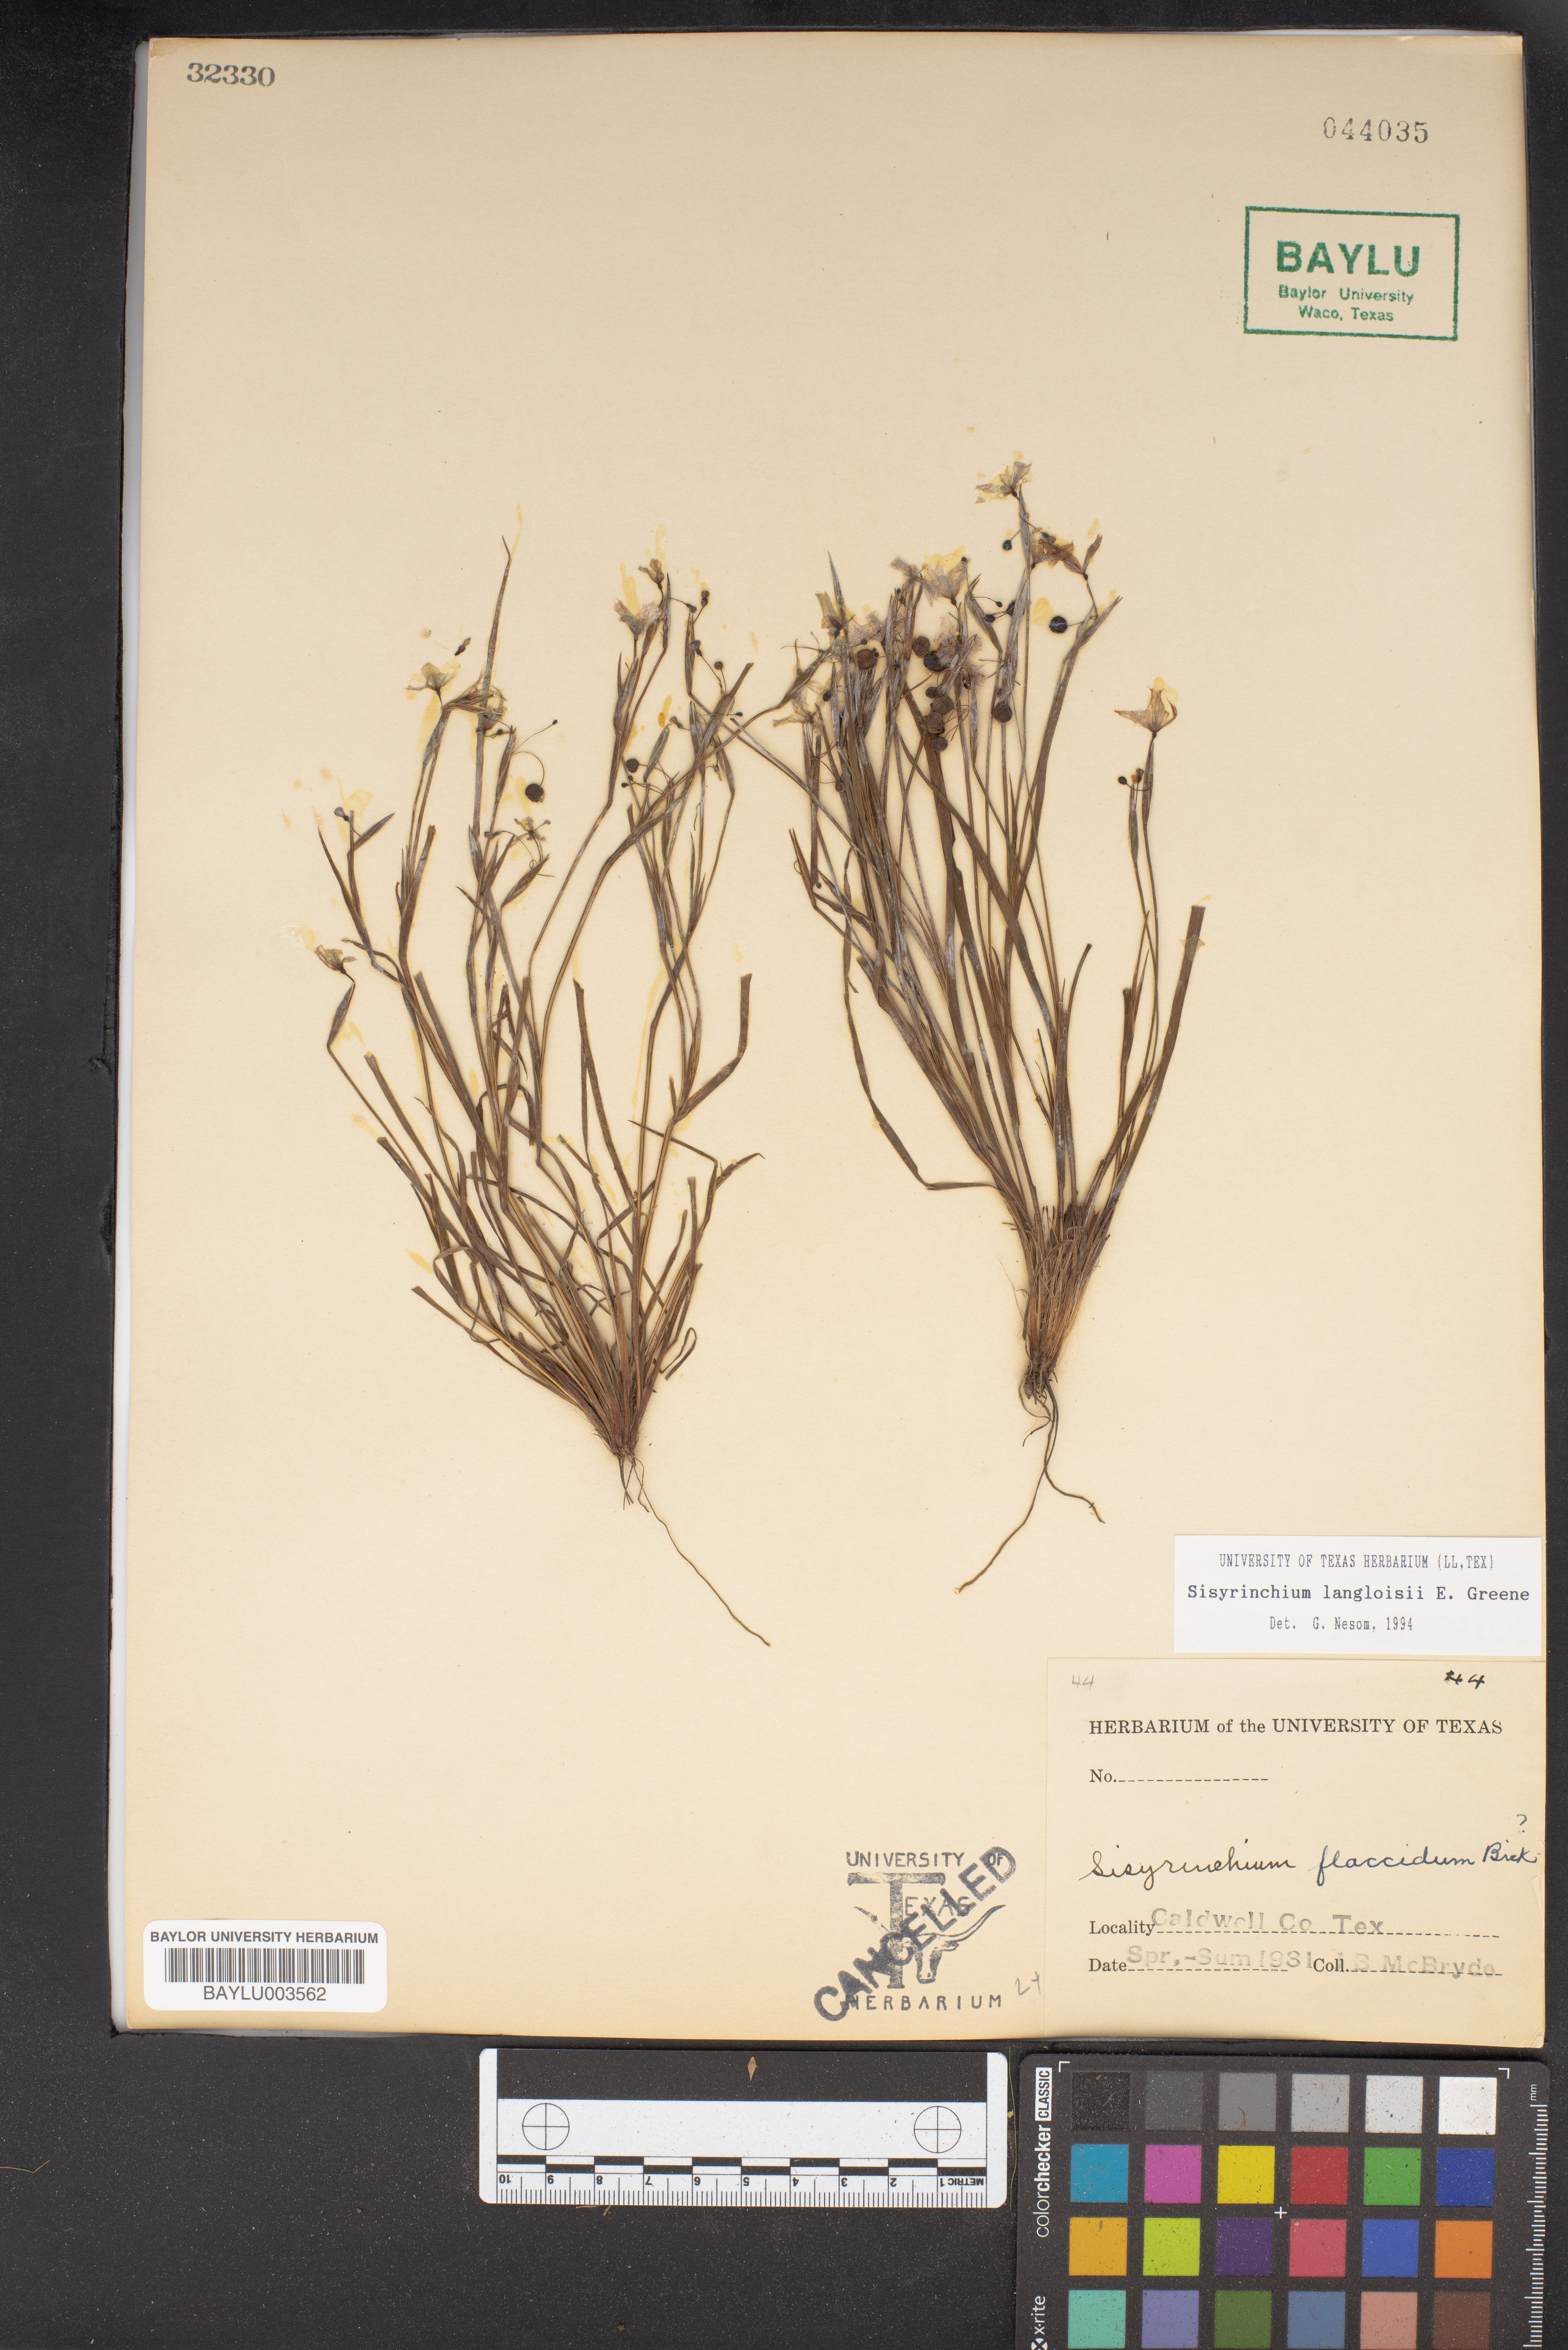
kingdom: Plantae
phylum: Tracheophyta
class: Liliopsida
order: Asparagales
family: Iridaceae
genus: Sisyrinchium
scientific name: Sisyrinchium langloisii
